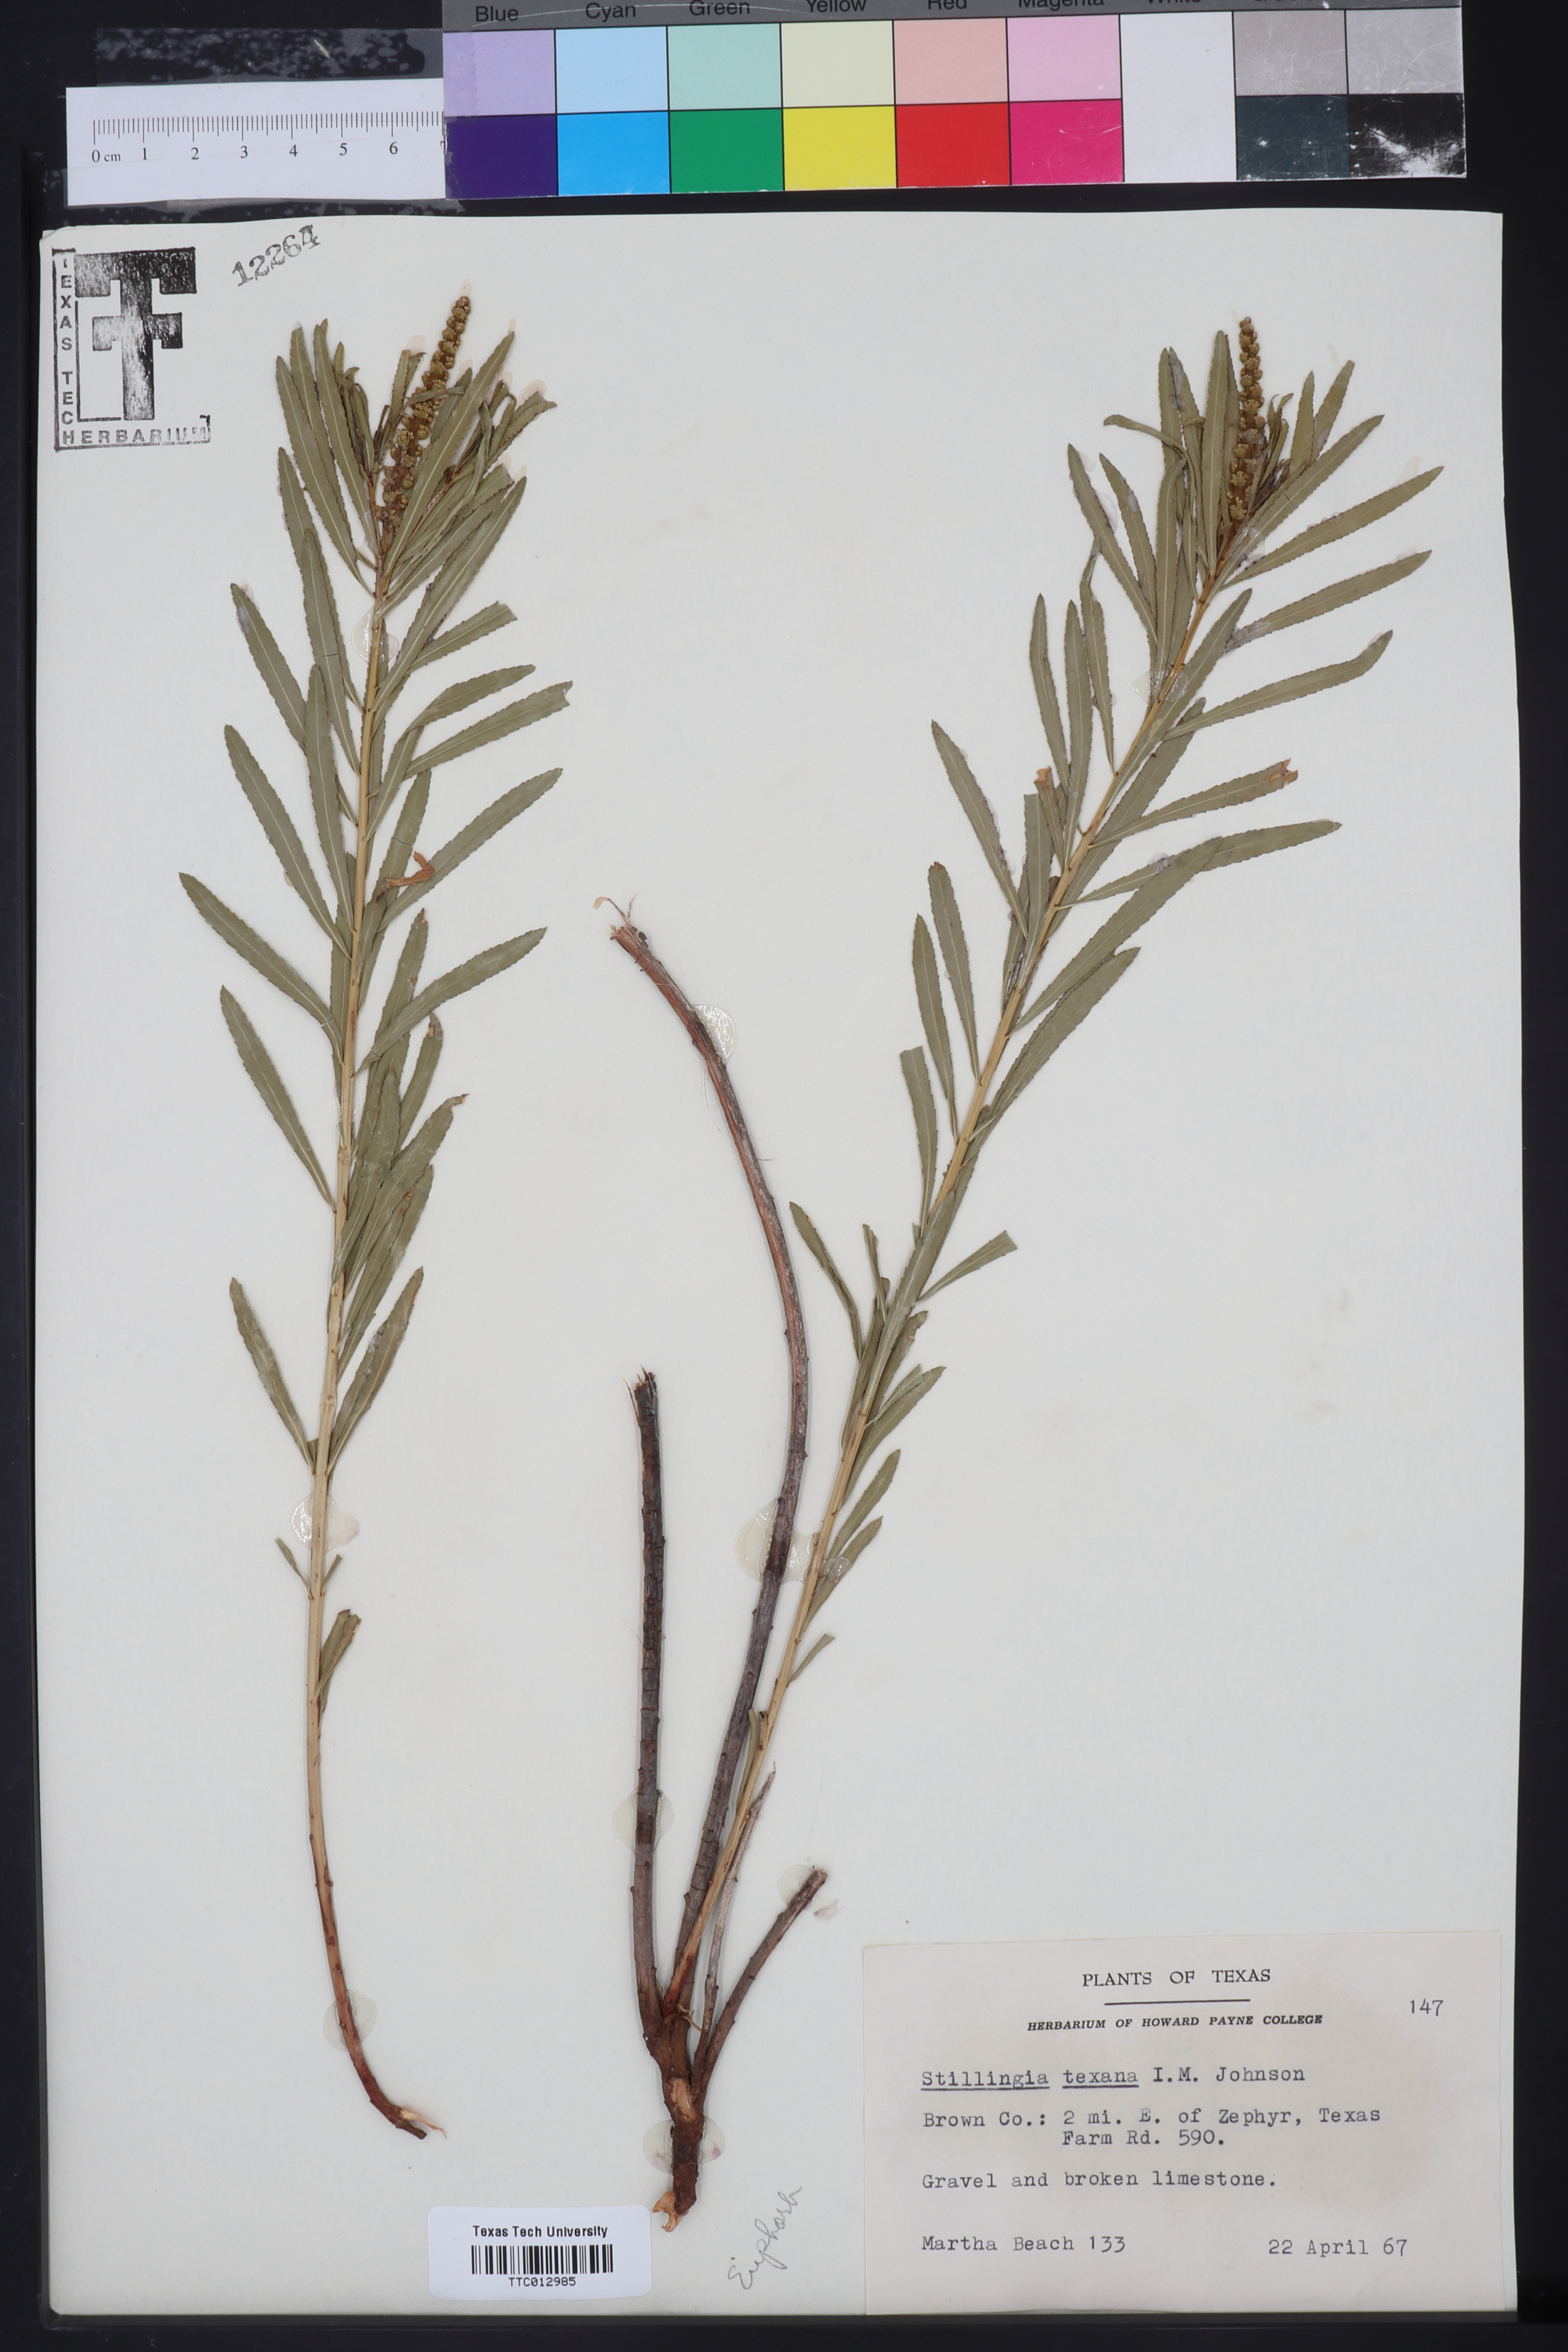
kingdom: Plantae
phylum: Tracheophyta
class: Magnoliopsida
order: Malpighiales
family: Euphorbiaceae
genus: Stillingia
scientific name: Stillingia texana
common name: Texas stillingia
